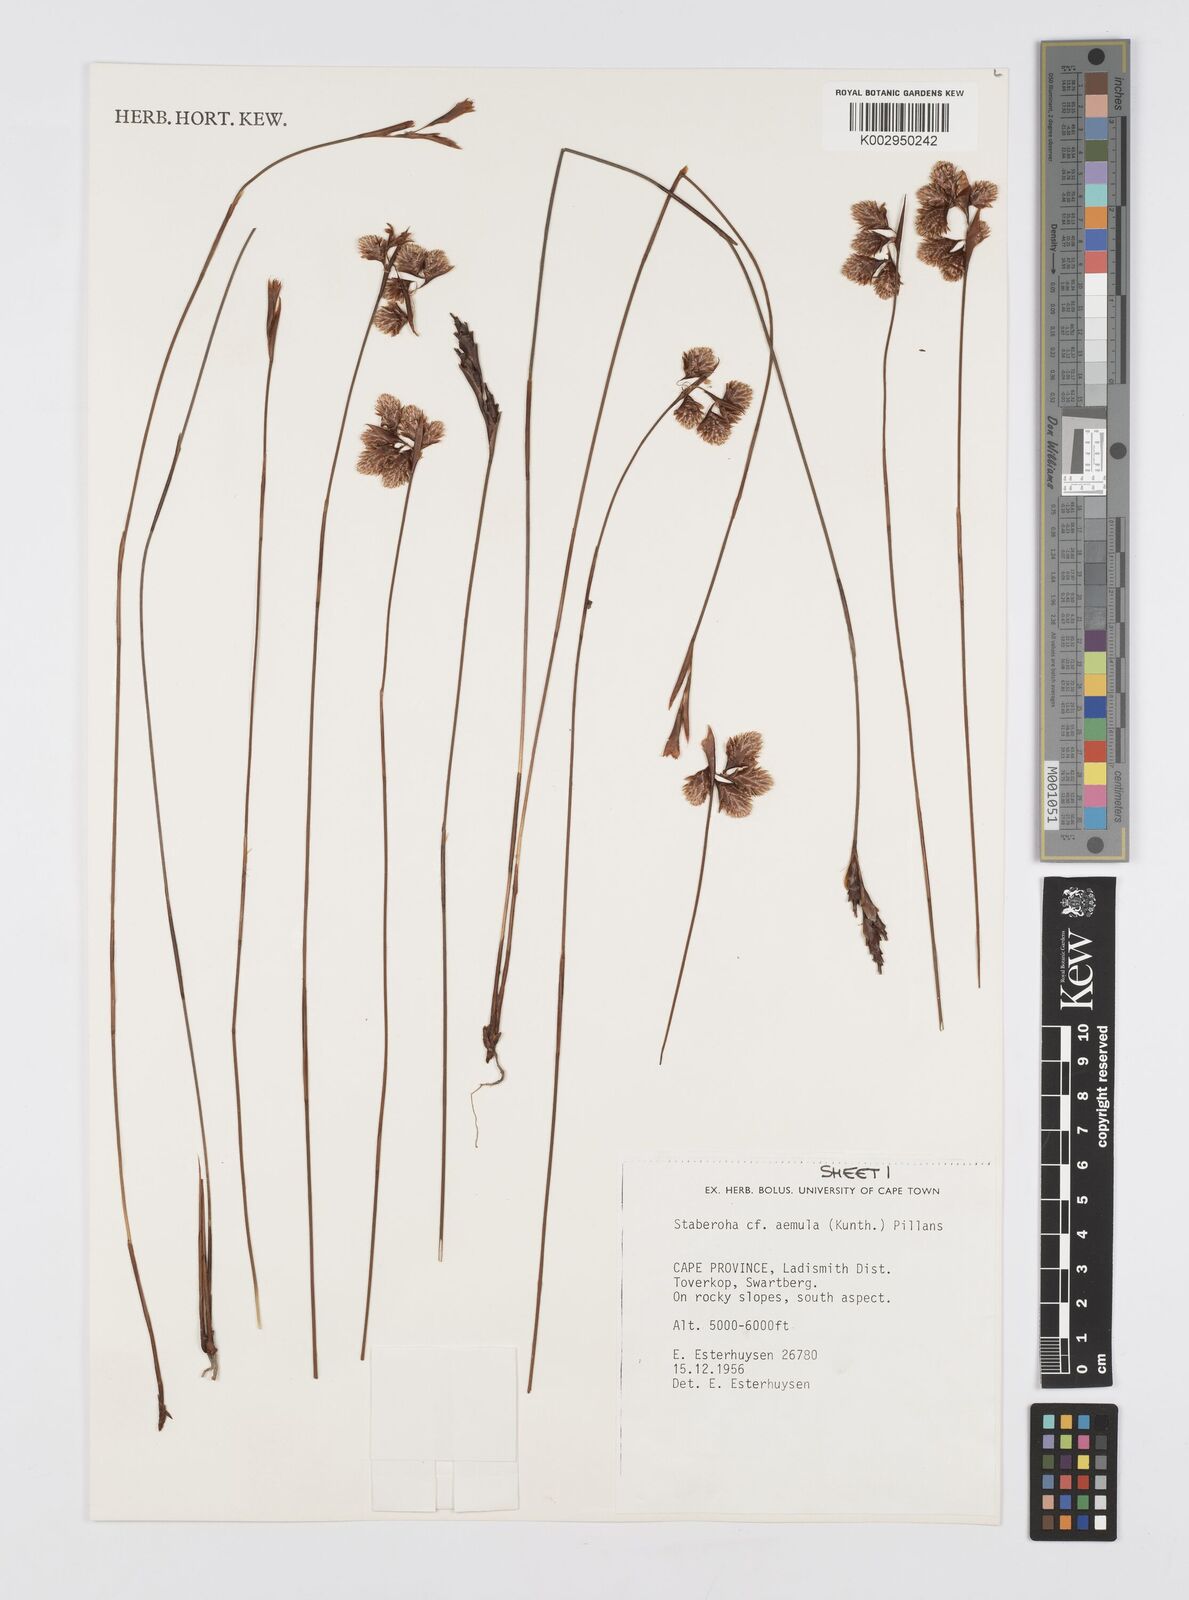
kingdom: Plantae
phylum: Tracheophyta
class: Liliopsida
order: Poales
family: Restionaceae
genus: Staberoha
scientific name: Staberoha aemula
